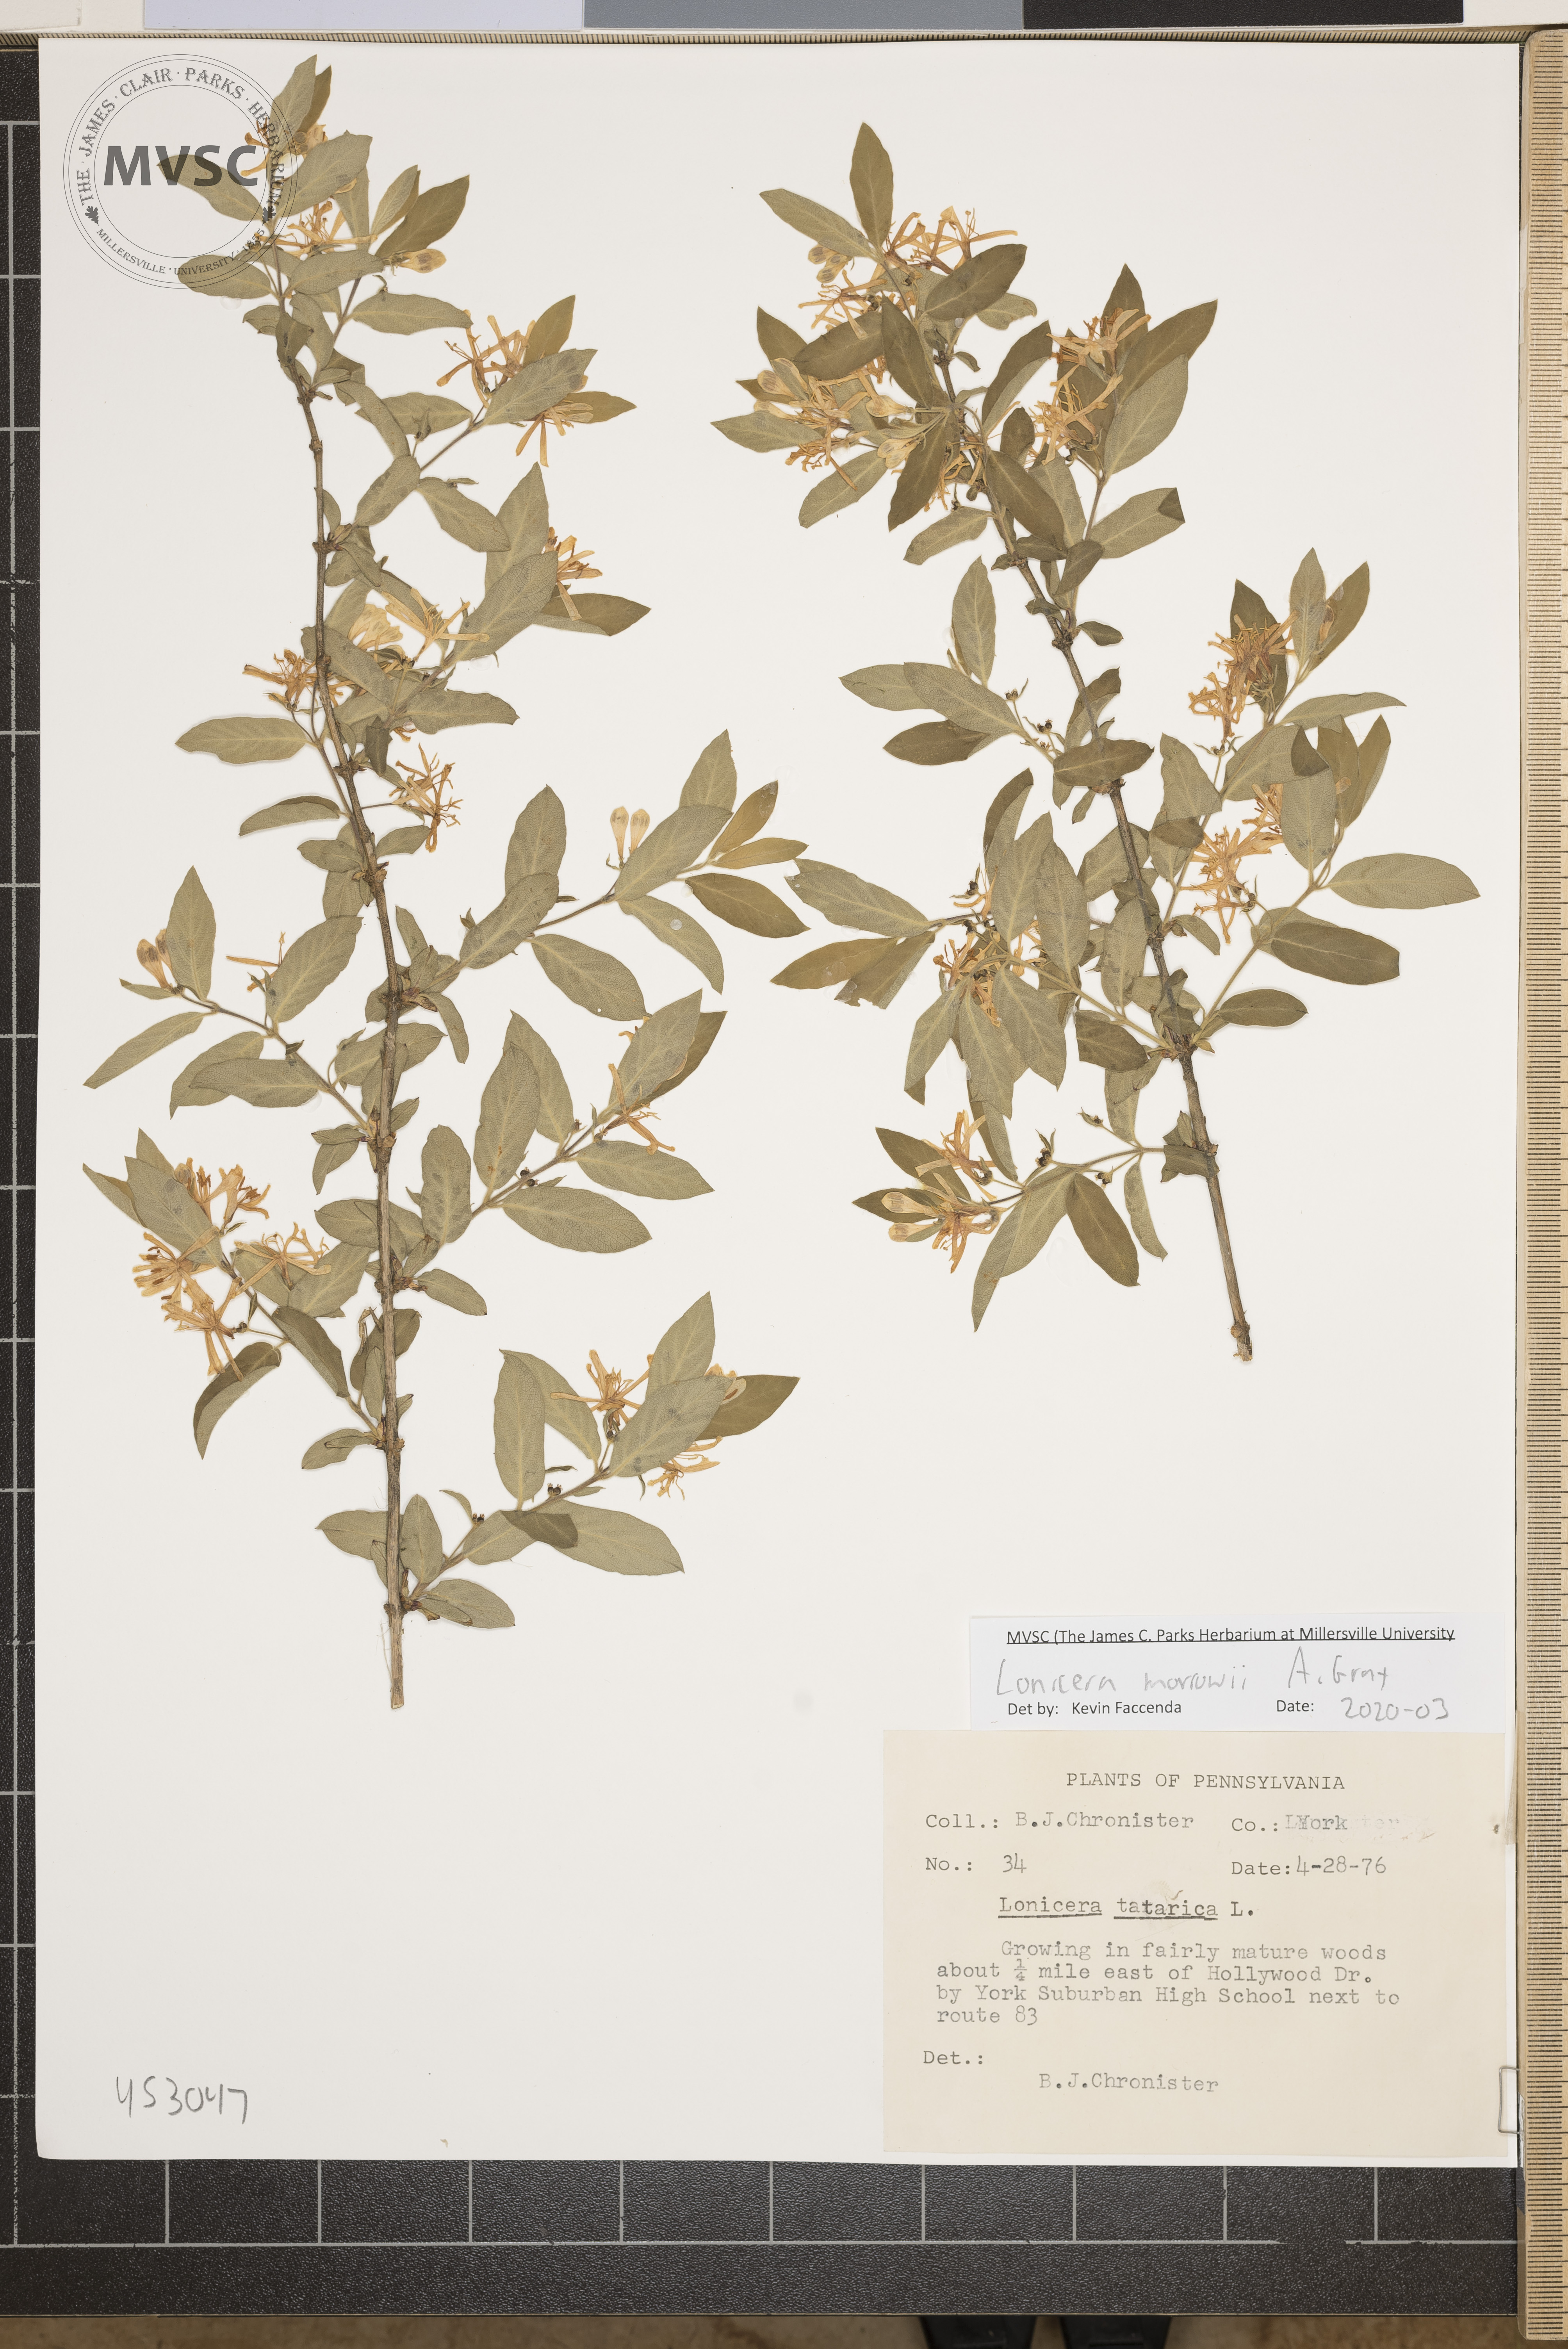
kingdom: Plantae
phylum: Tracheophyta
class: Magnoliopsida
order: Dipsacales
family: Caprifoliaceae
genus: Lonicera
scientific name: Lonicera morrowii
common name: Morrow's honeysuckle
